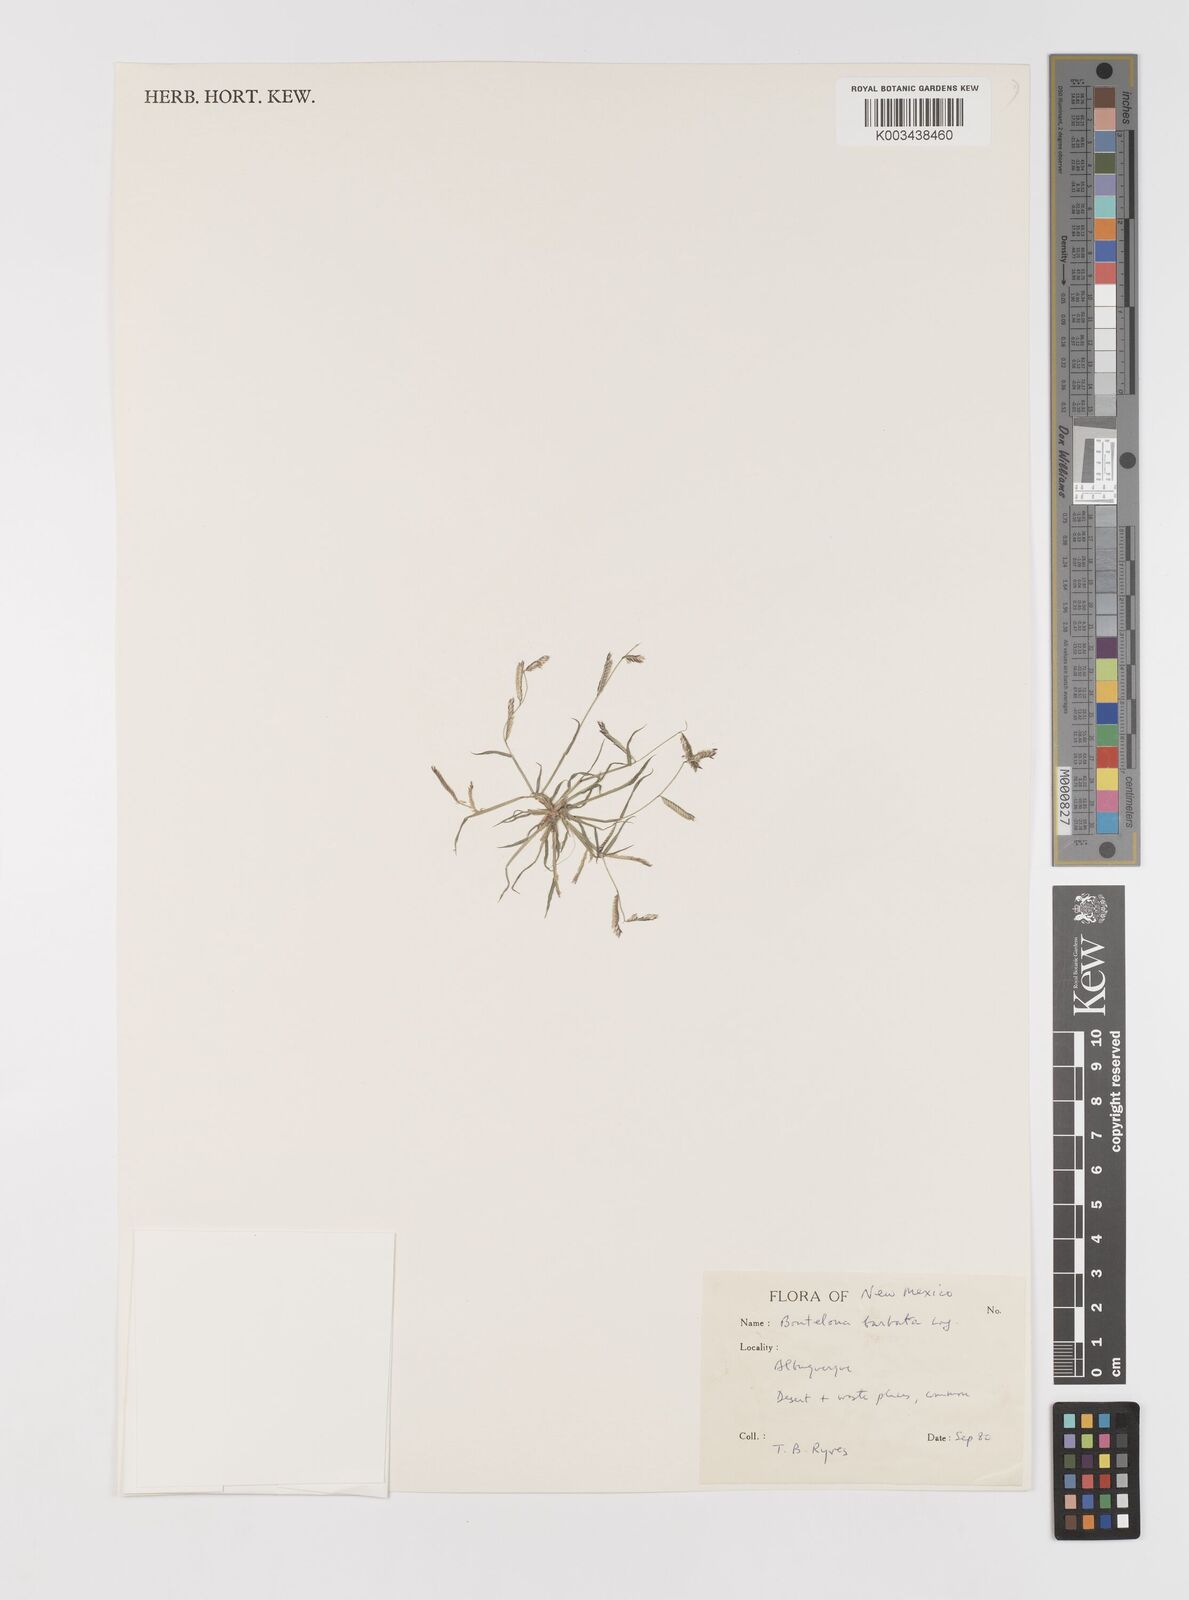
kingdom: Plantae
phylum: Tracheophyta
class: Liliopsida
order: Poales
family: Poaceae
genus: Bouteloua
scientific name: Bouteloua
